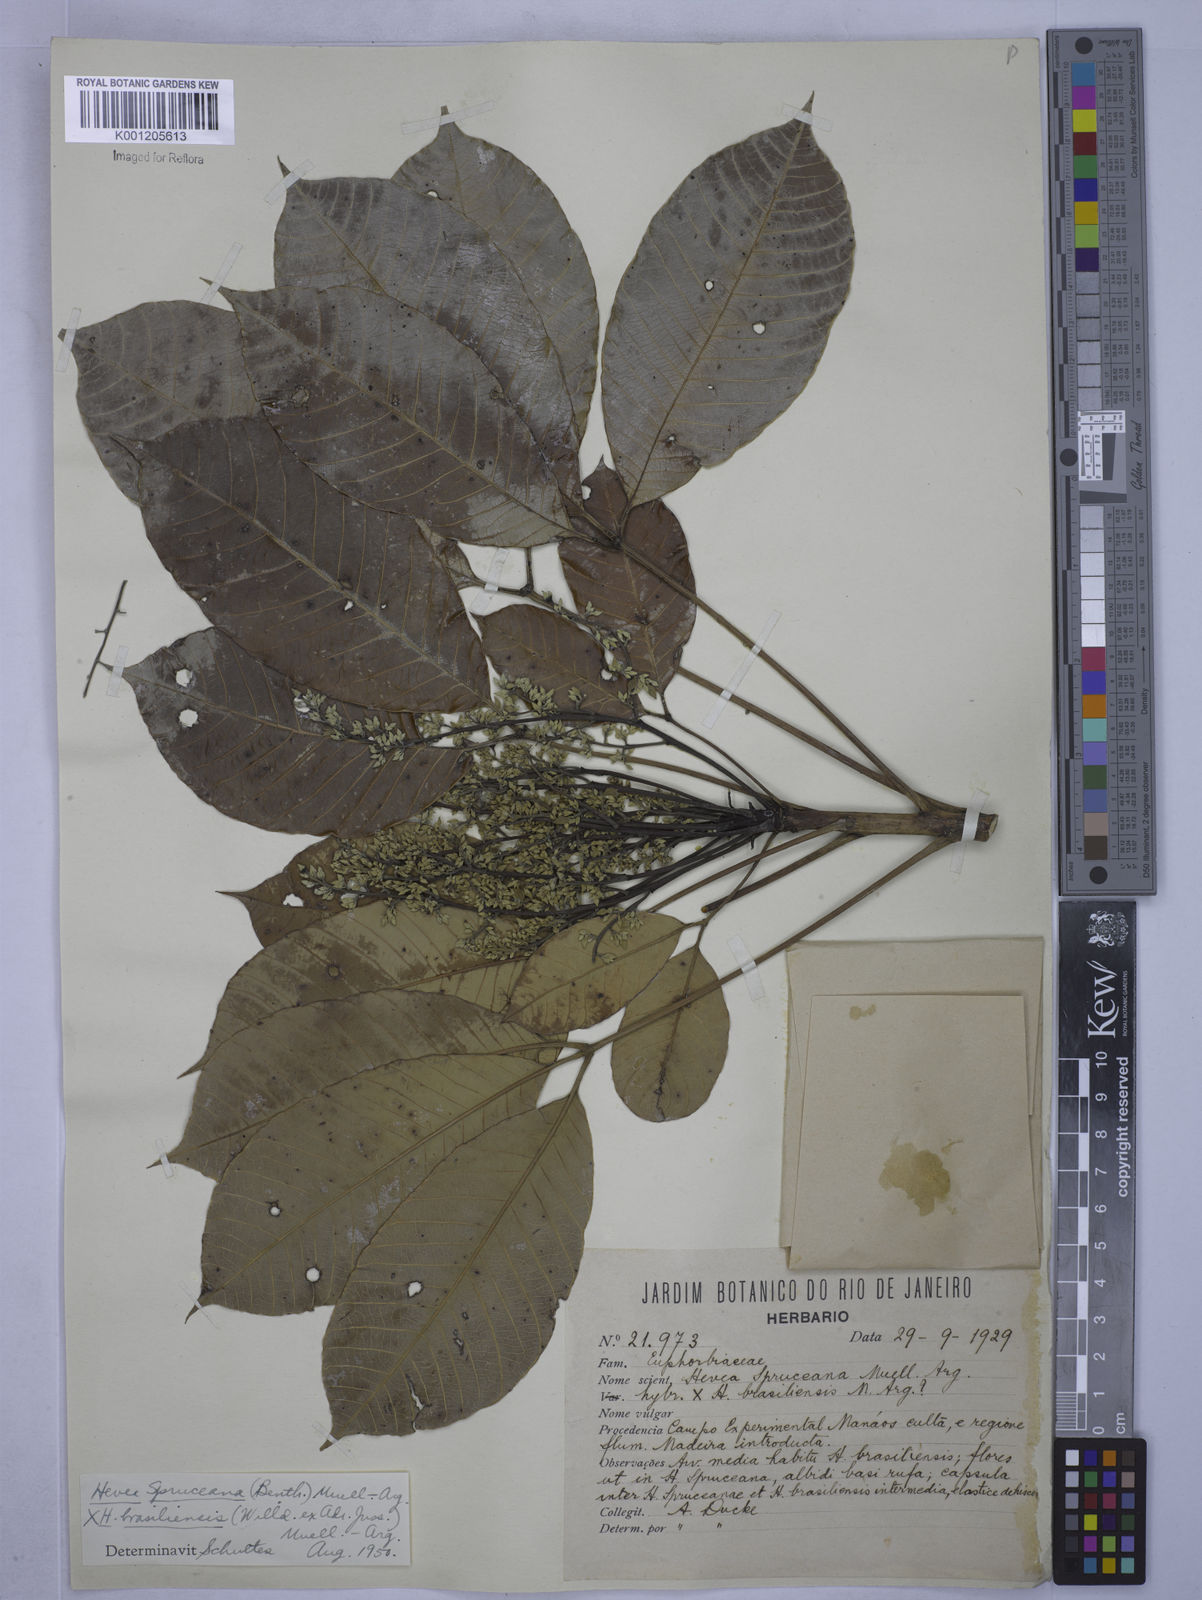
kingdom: Plantae
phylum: Tracheophyta
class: Magnoliopsida
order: Malpighiales
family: Euphorbiaceae
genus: Hevea
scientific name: Hevea
